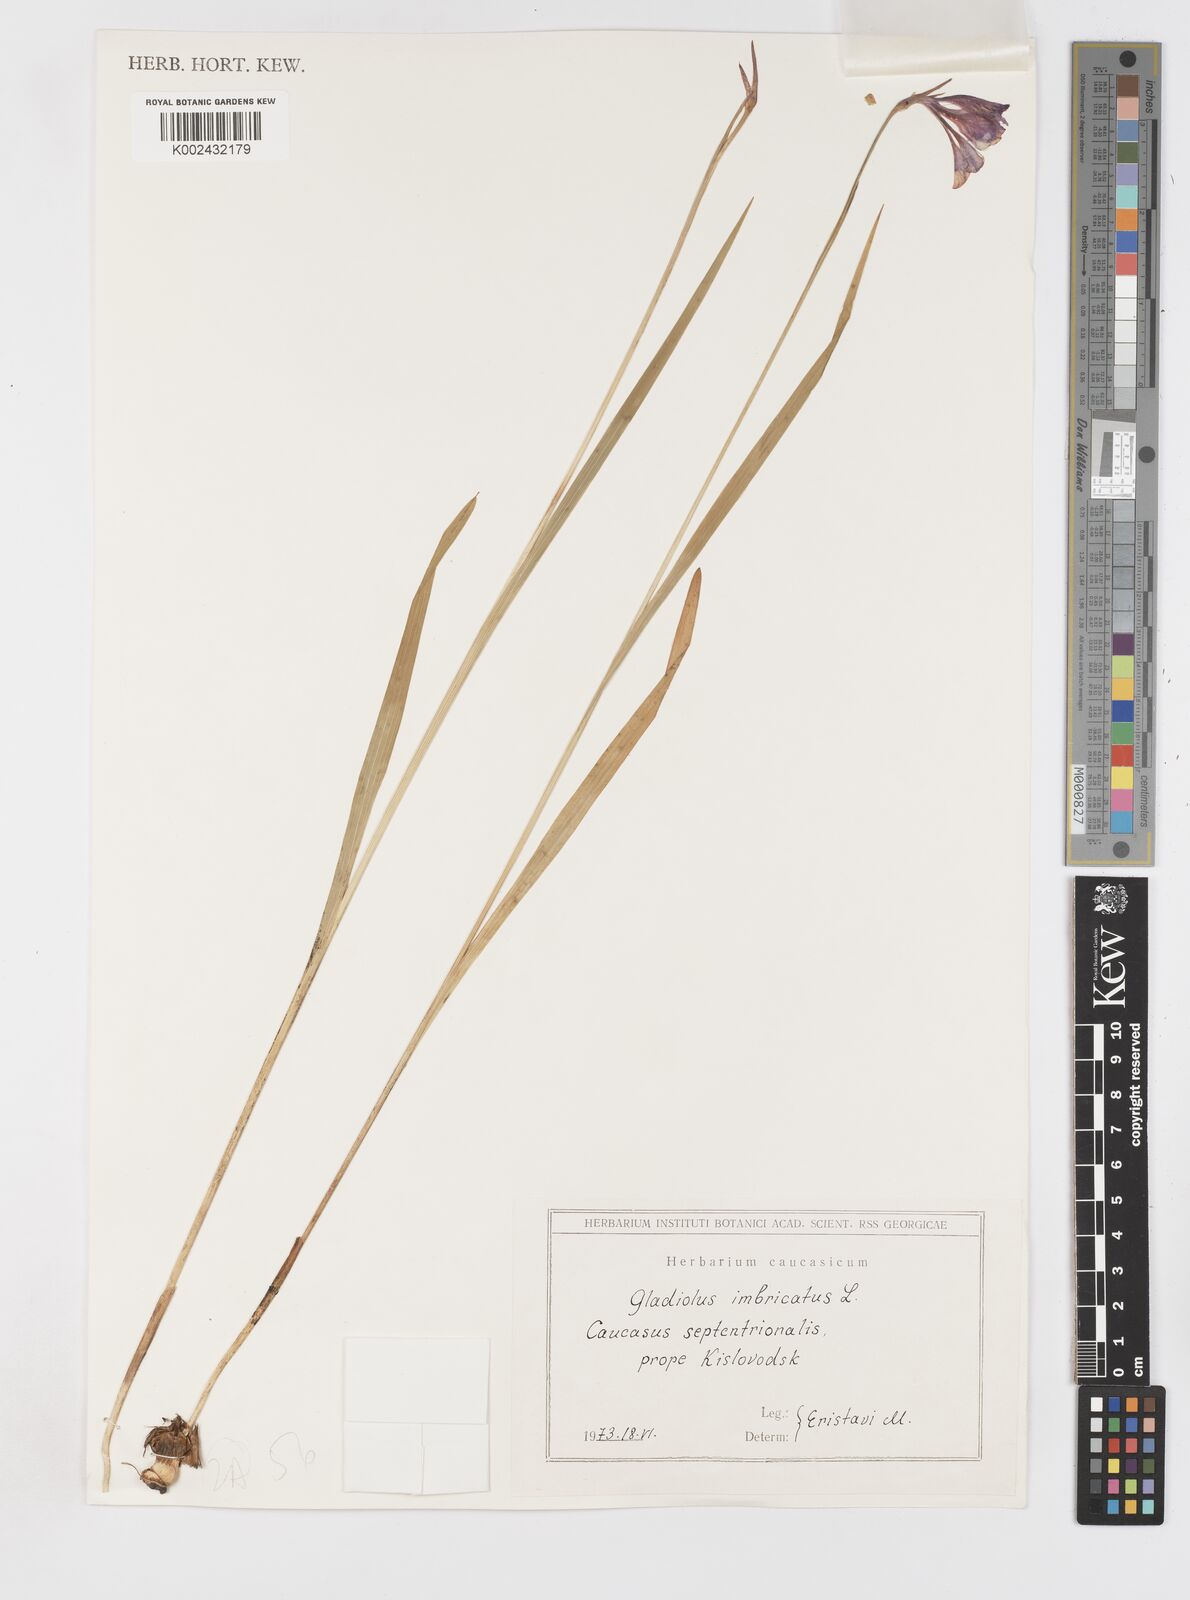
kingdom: Plantae
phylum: Tracheophyta
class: Liliopsida
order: Asparagales
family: Iridaceae
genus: Gladiolus
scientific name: Gladiolus imbricatus
